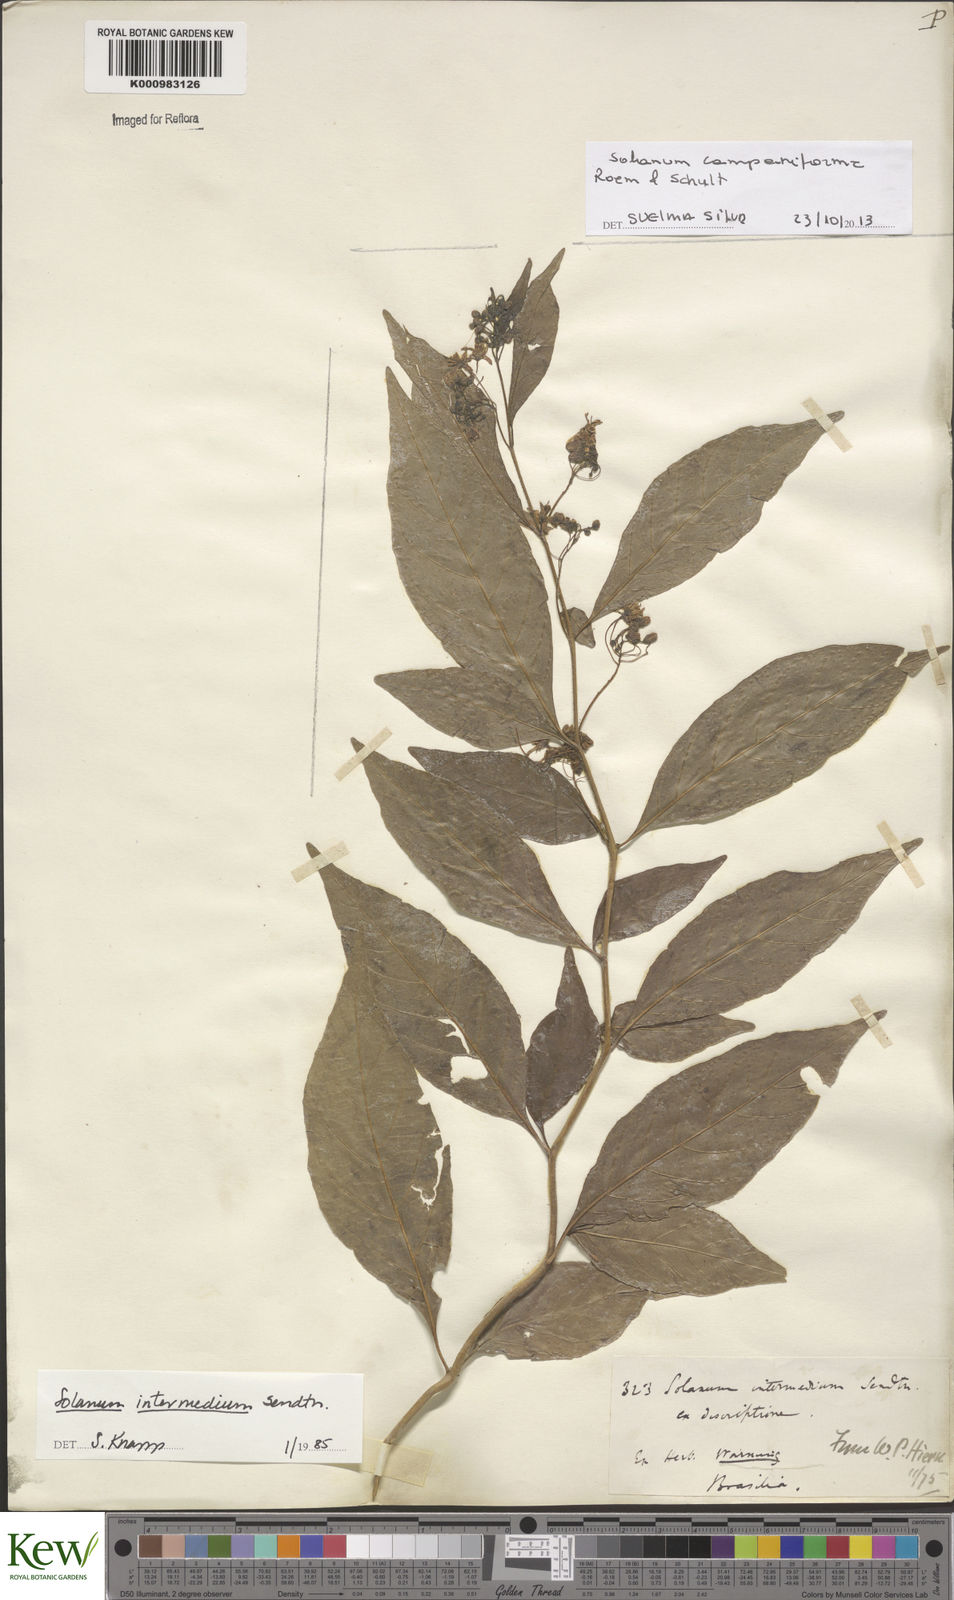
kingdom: Plantae
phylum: Tracheophyta
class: Magnoliopsida
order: Solanales
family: Solanaceae
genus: Solanum
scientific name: Solanum campaniforme
